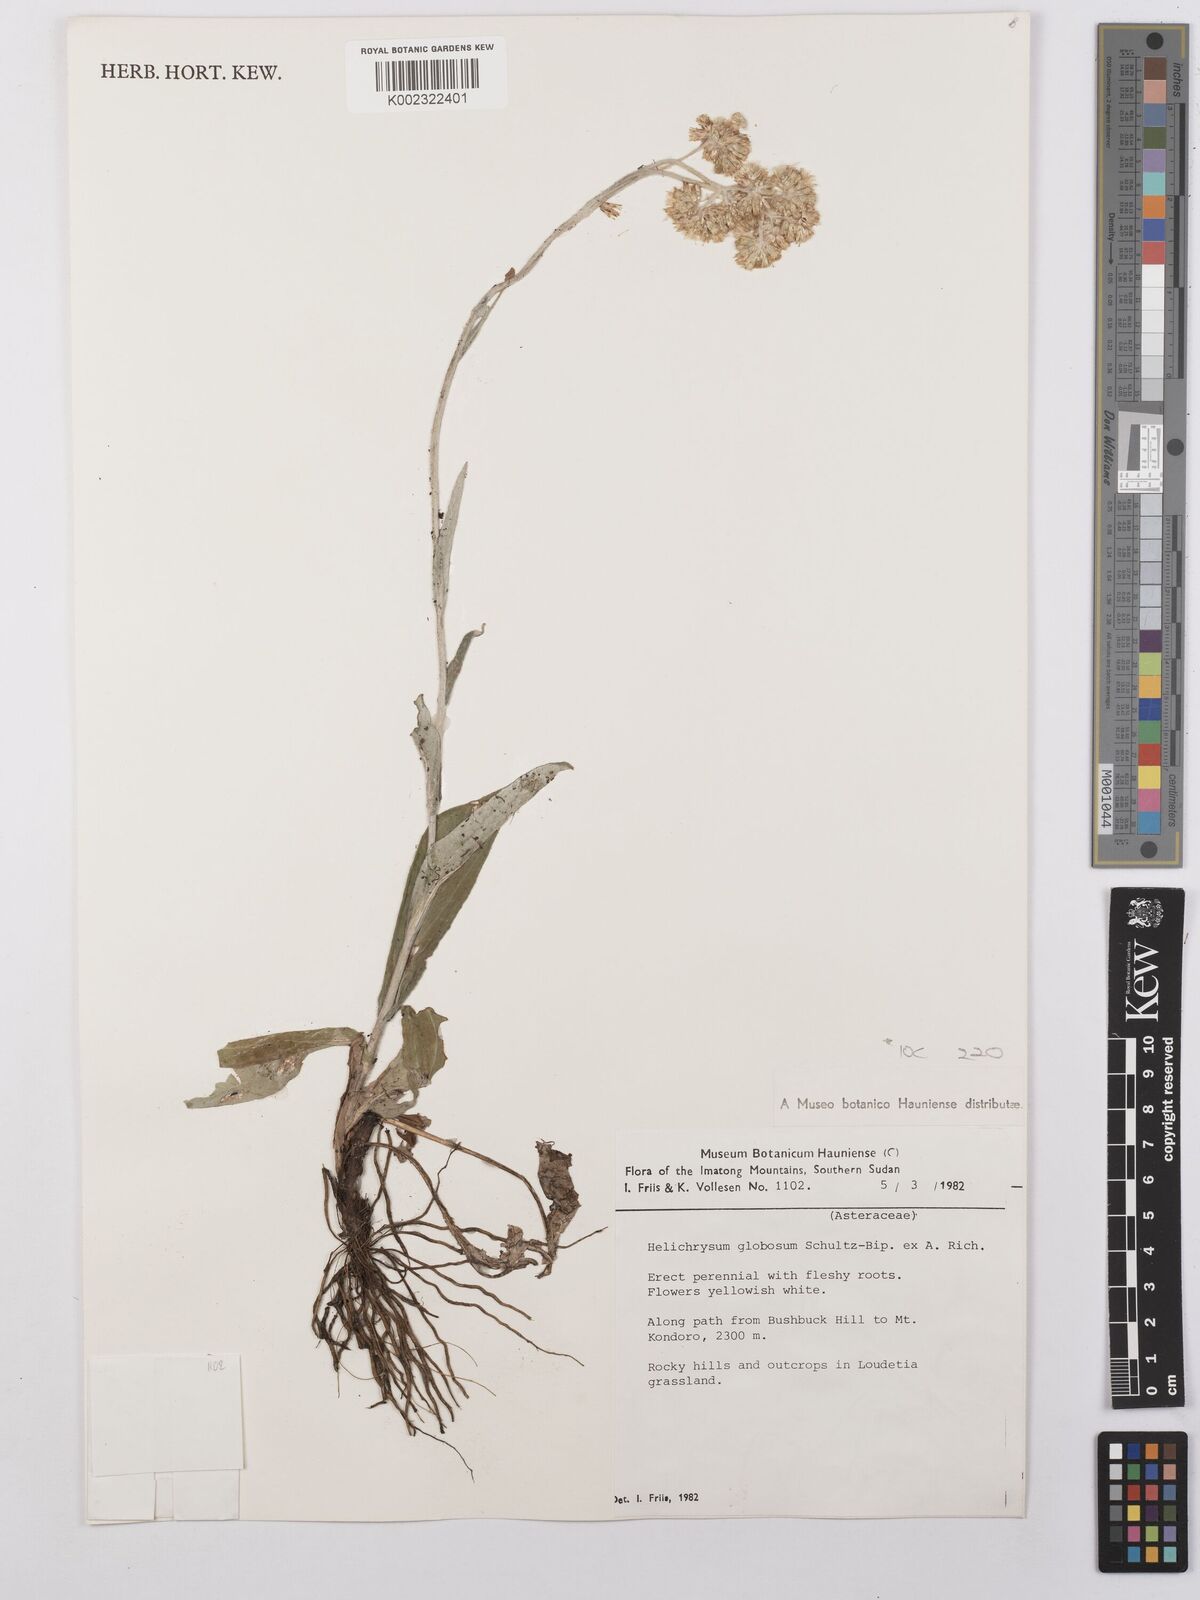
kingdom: Plantae
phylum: Tracheophyta
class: Magnoliopsida
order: Asterales
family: Asteraceae
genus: Helichrysum
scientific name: Helichrysum globosum
